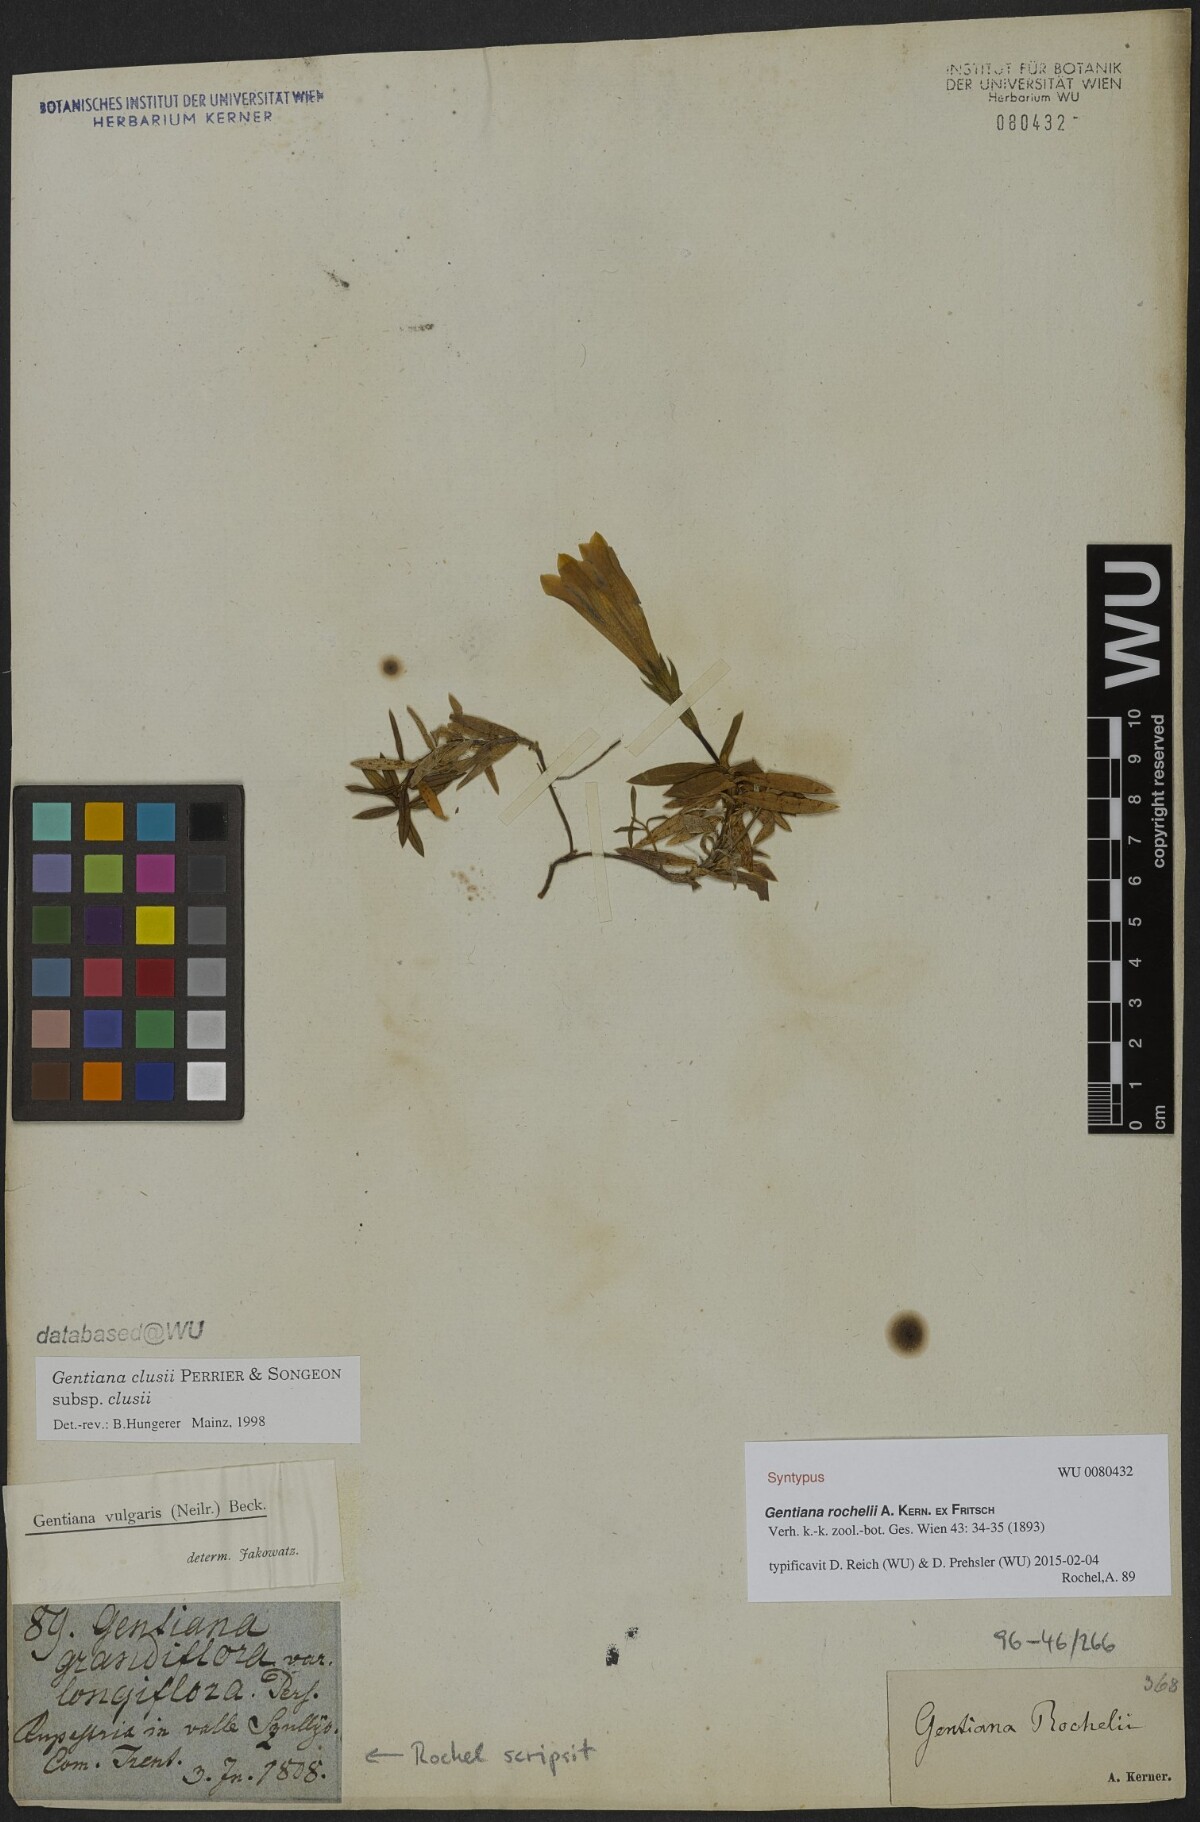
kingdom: Plantae
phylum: Tracheophyta
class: Magnoliopsida
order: Gentianales
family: Gentianaceae
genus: Gentiana
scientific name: Gentiana clusii
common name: Trumpet gentian
